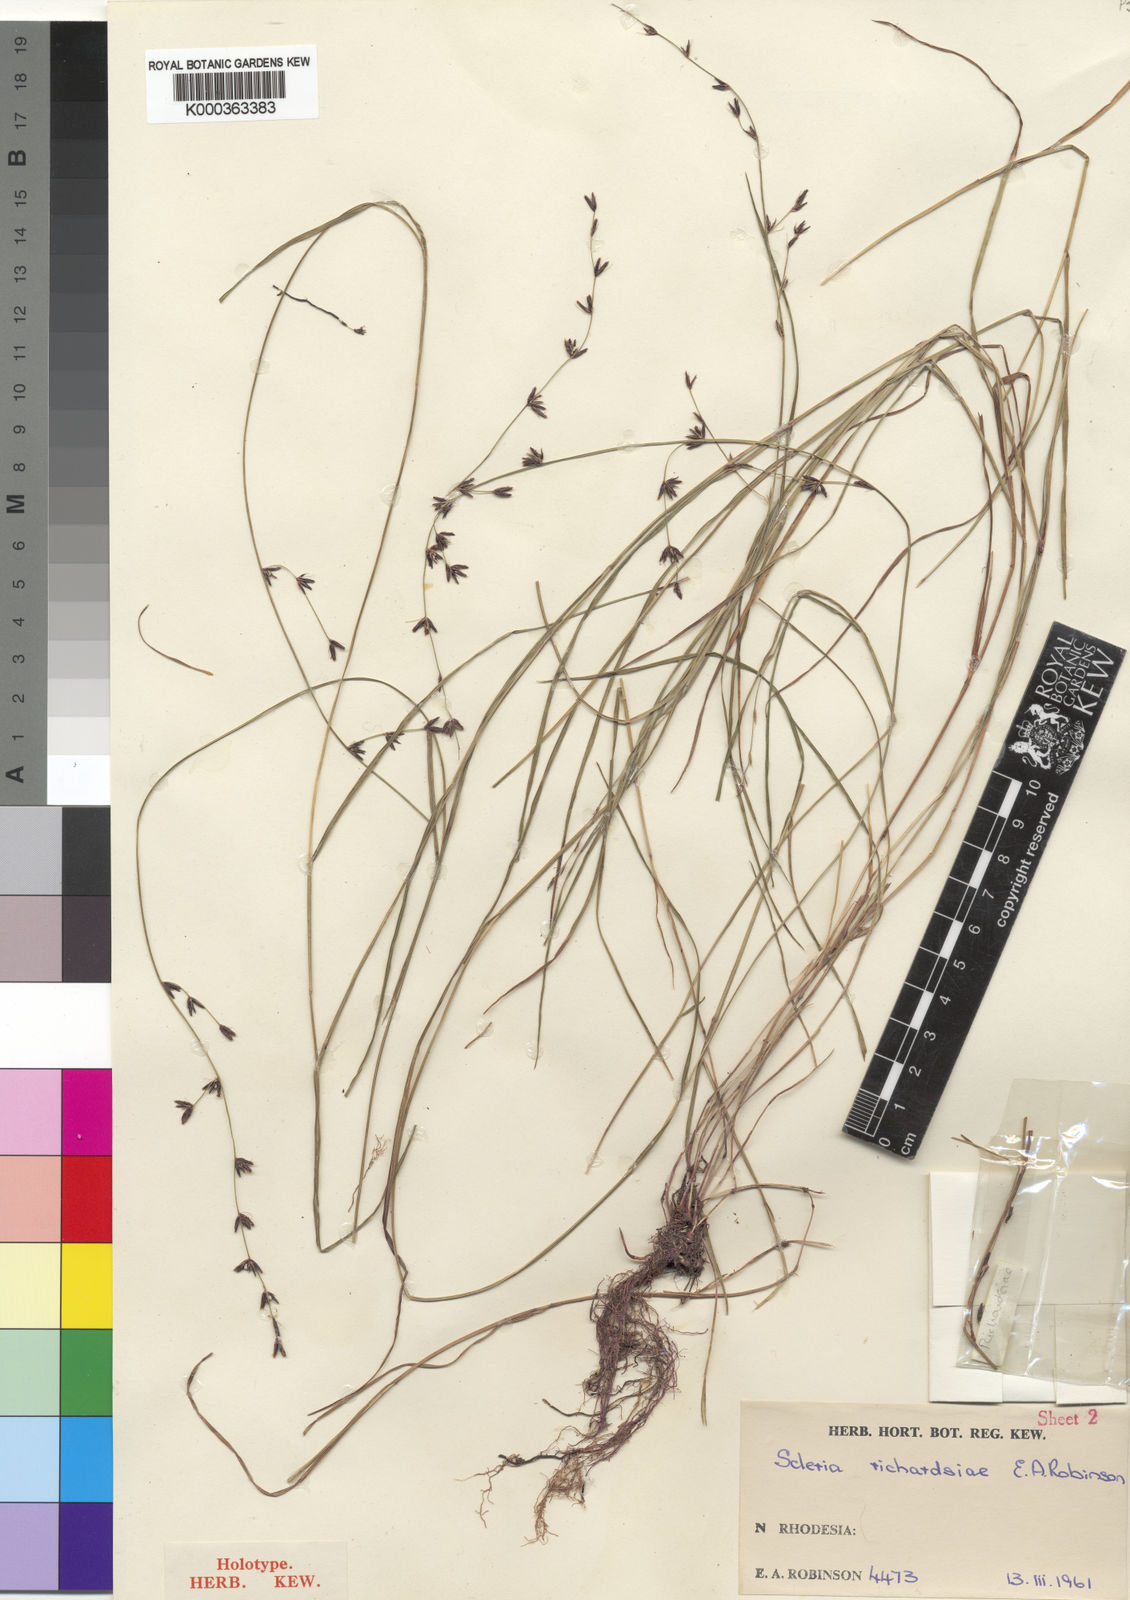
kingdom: Plantae
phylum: Tracheophyta
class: Liliopsida
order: Poales
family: Cyperaceae
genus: Scleria
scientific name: Scleria richardsiae
